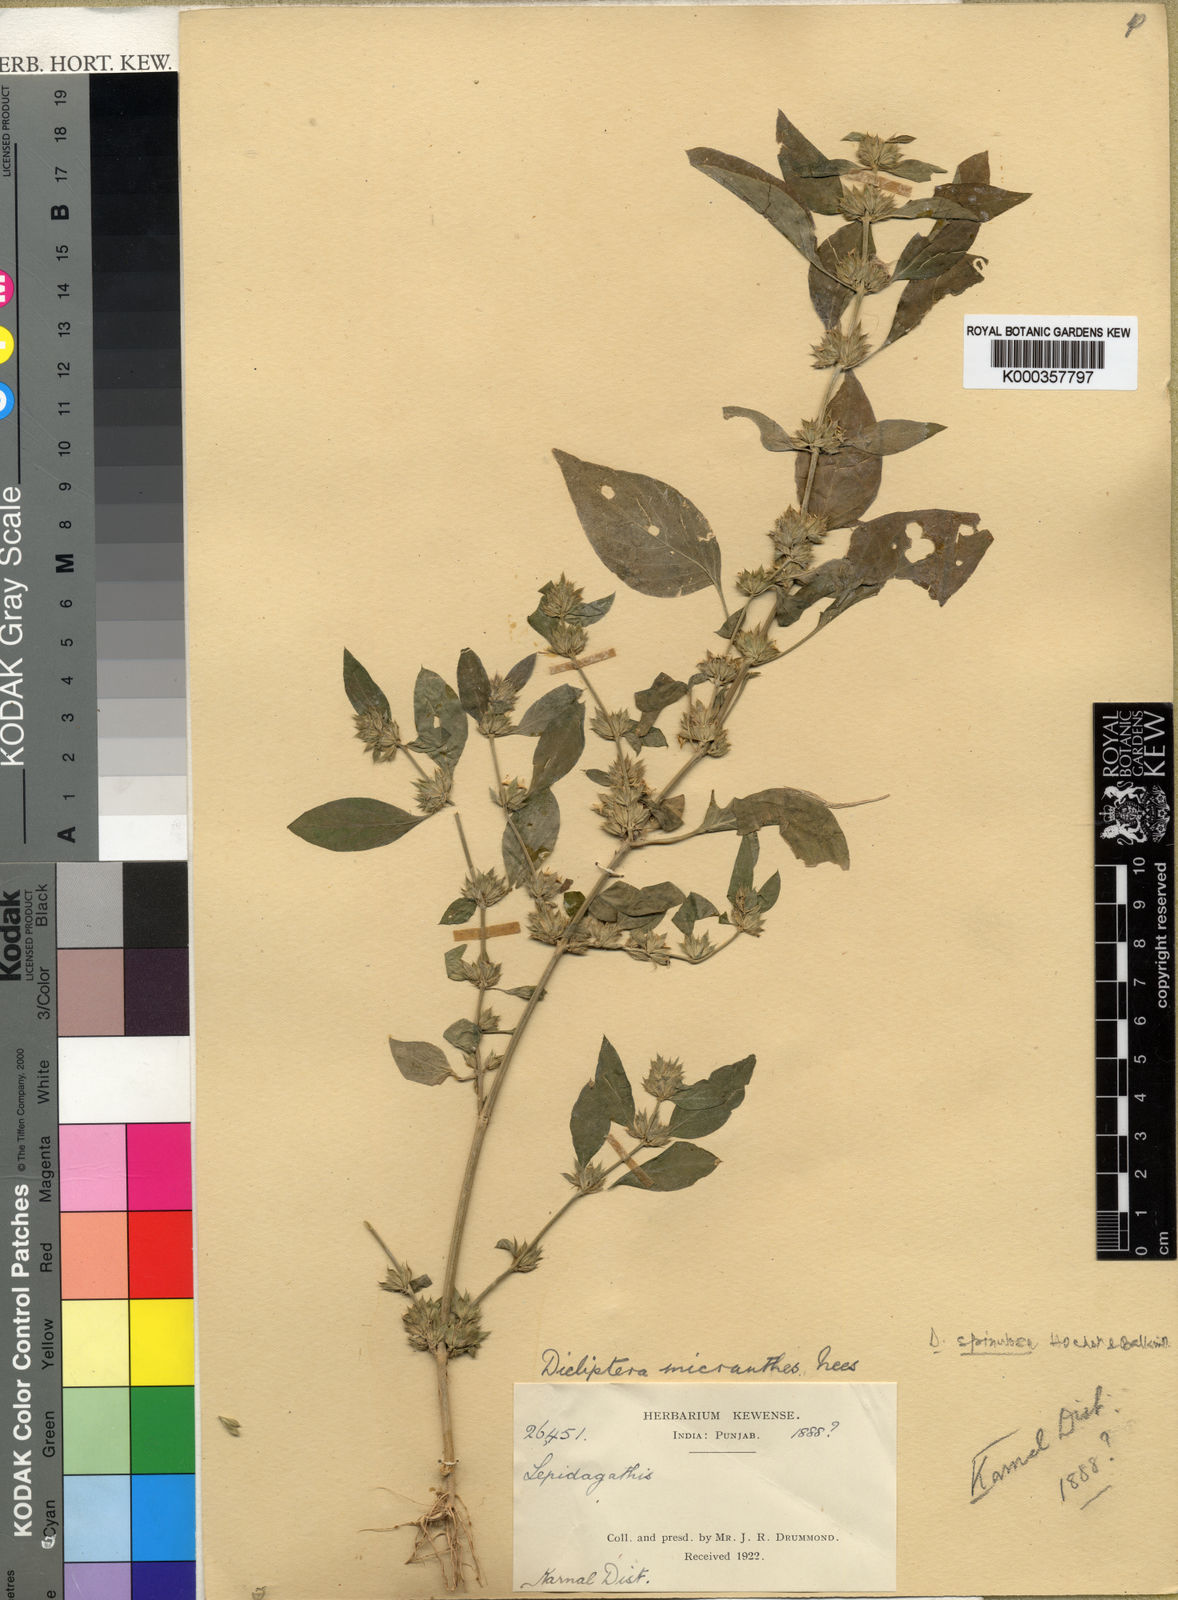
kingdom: Plantae
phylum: Tracheophyta
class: Magnoliopsida
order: Lamiales
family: Acanthaceae
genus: Dicliptera
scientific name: Dicliptera verticillata
